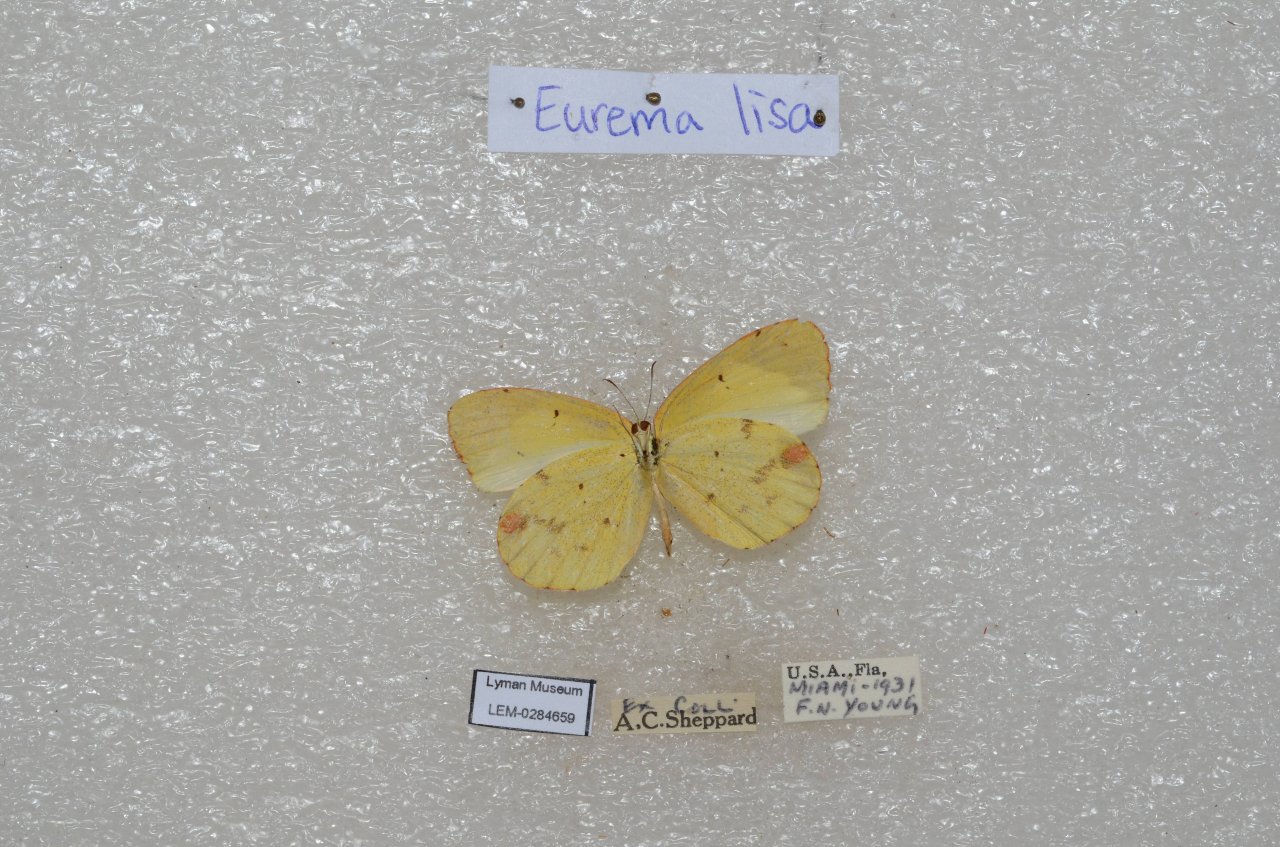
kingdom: Animalia
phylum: Arthropoda
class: Insecta
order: Lepidoptera
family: Pieridae
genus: Pyrisitia
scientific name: Pyrisitia lisa
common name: Little Yellow
